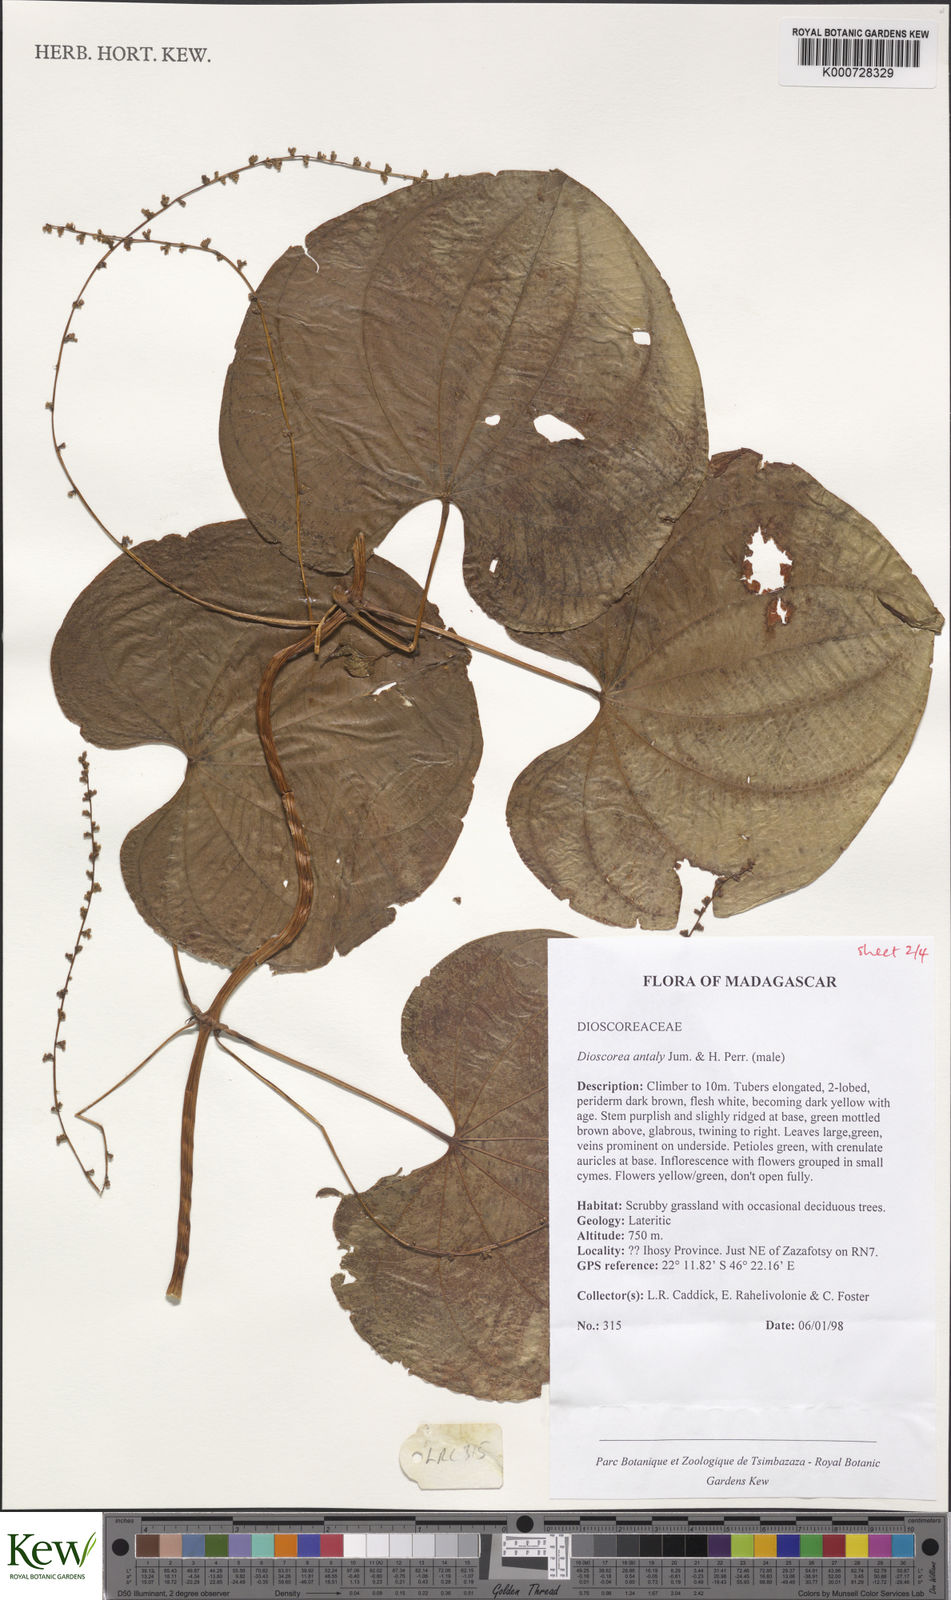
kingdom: Plantae
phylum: Tracheophyta
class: Liliopsida
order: Dioscoreales
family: Dioscoreaceae
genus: Dioscorea
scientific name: Dioscorea antaly
